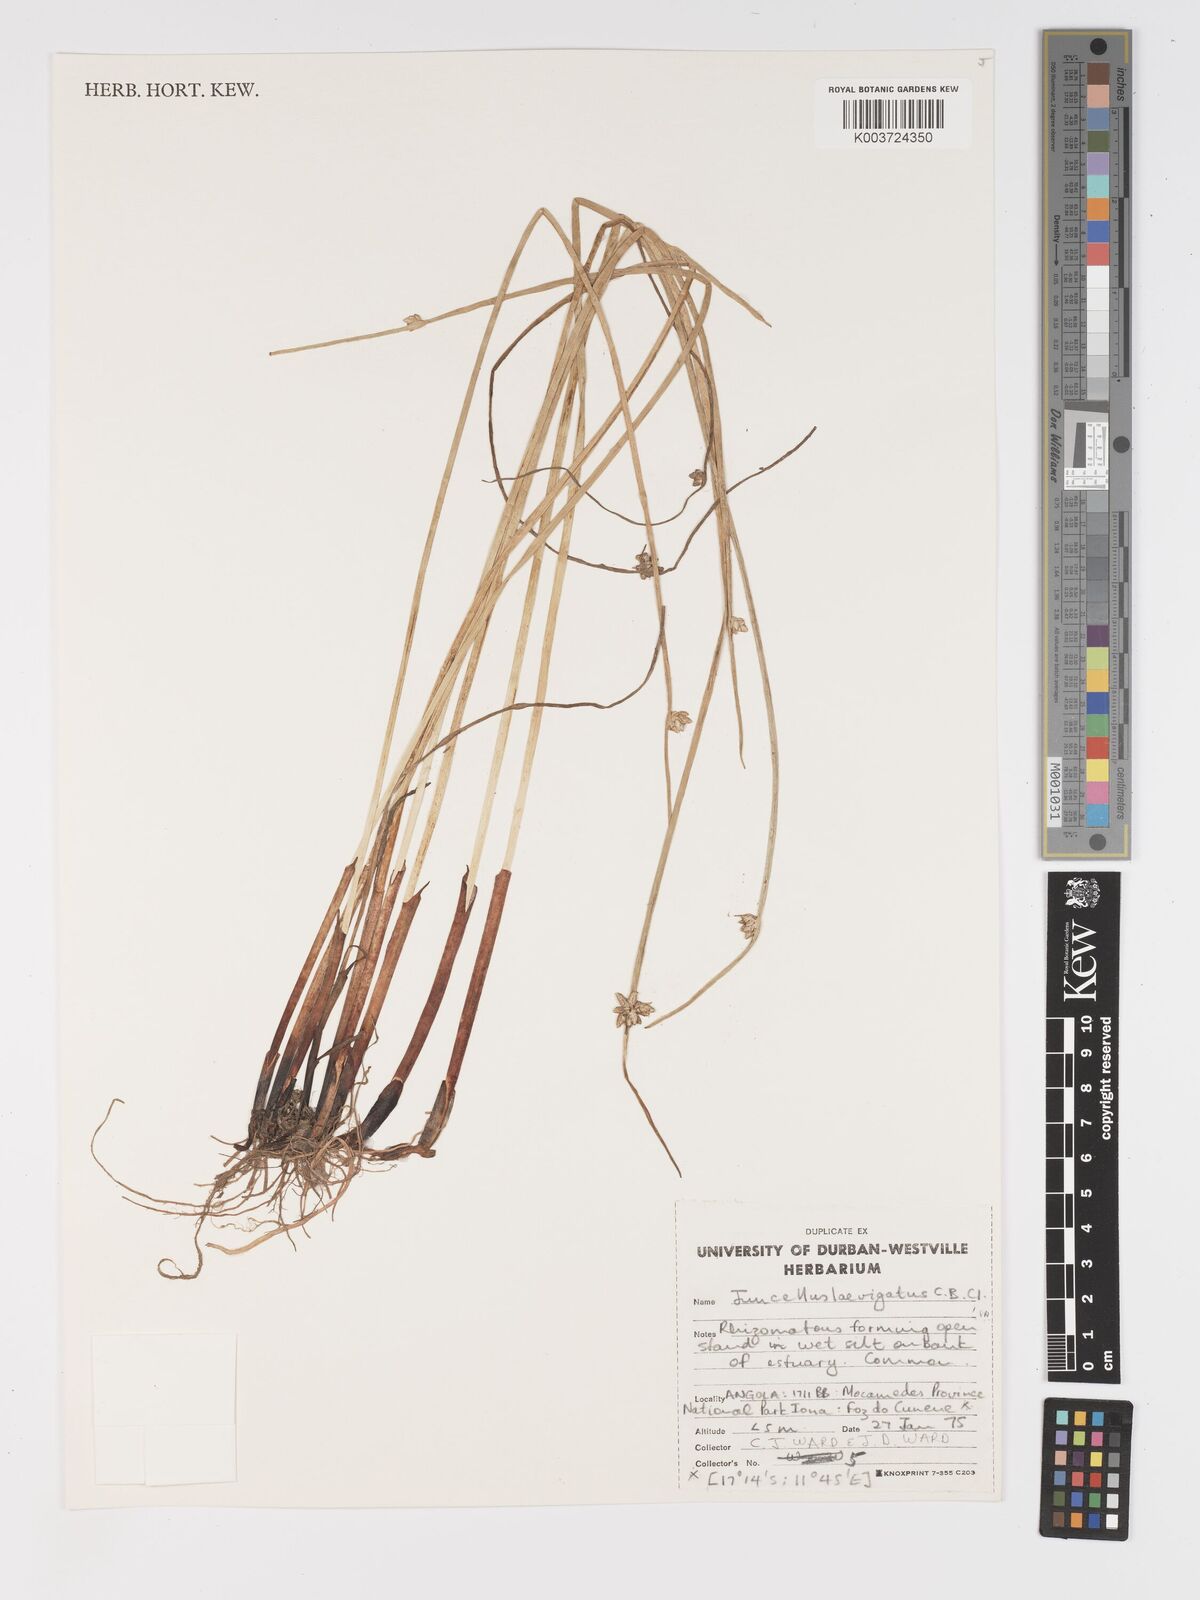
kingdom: Plantae
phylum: Tracheophyta
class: Liliopsida
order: Poales
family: Cyperaceae
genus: Cyperus
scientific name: Cyperus laevigatus
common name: Smooth flat sedge
